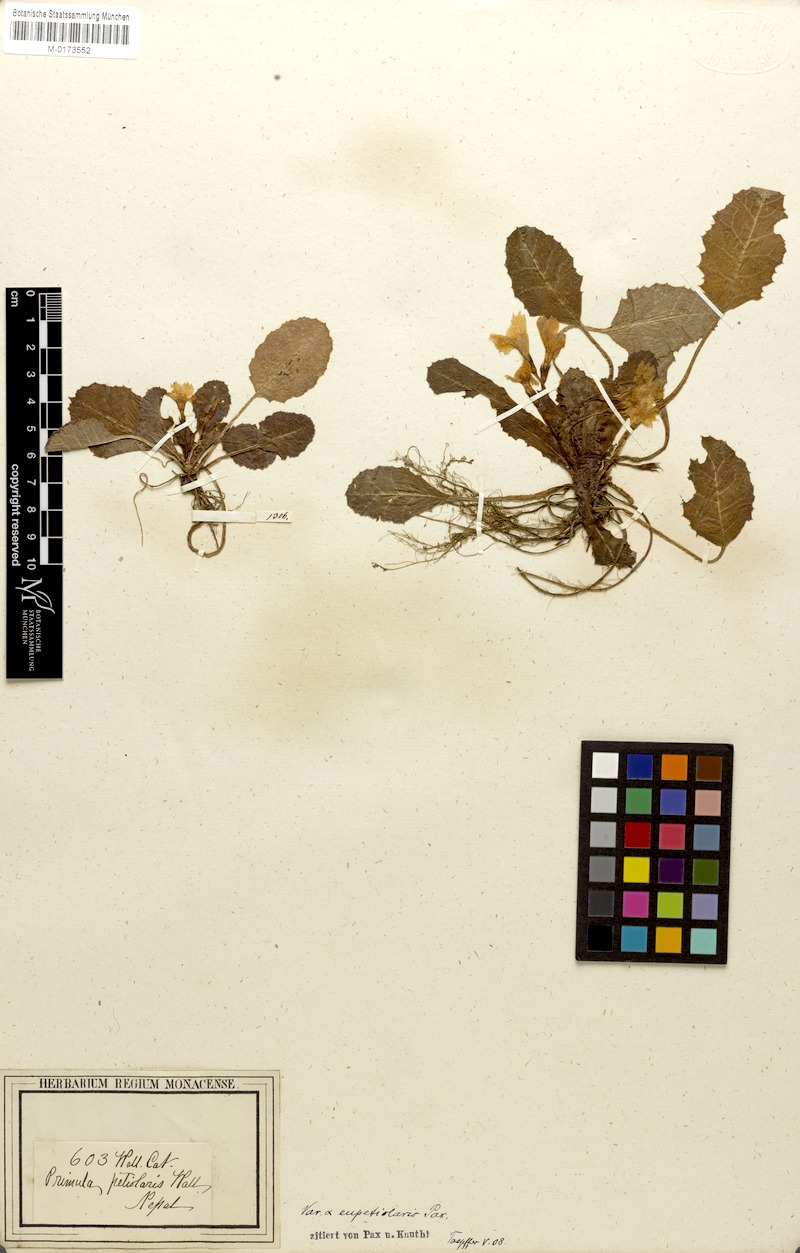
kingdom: Plantae
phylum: Tracheophyta
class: Magnoliopsida
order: Ericales
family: Primulaceae
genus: Primula
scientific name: Primula petiolaris
